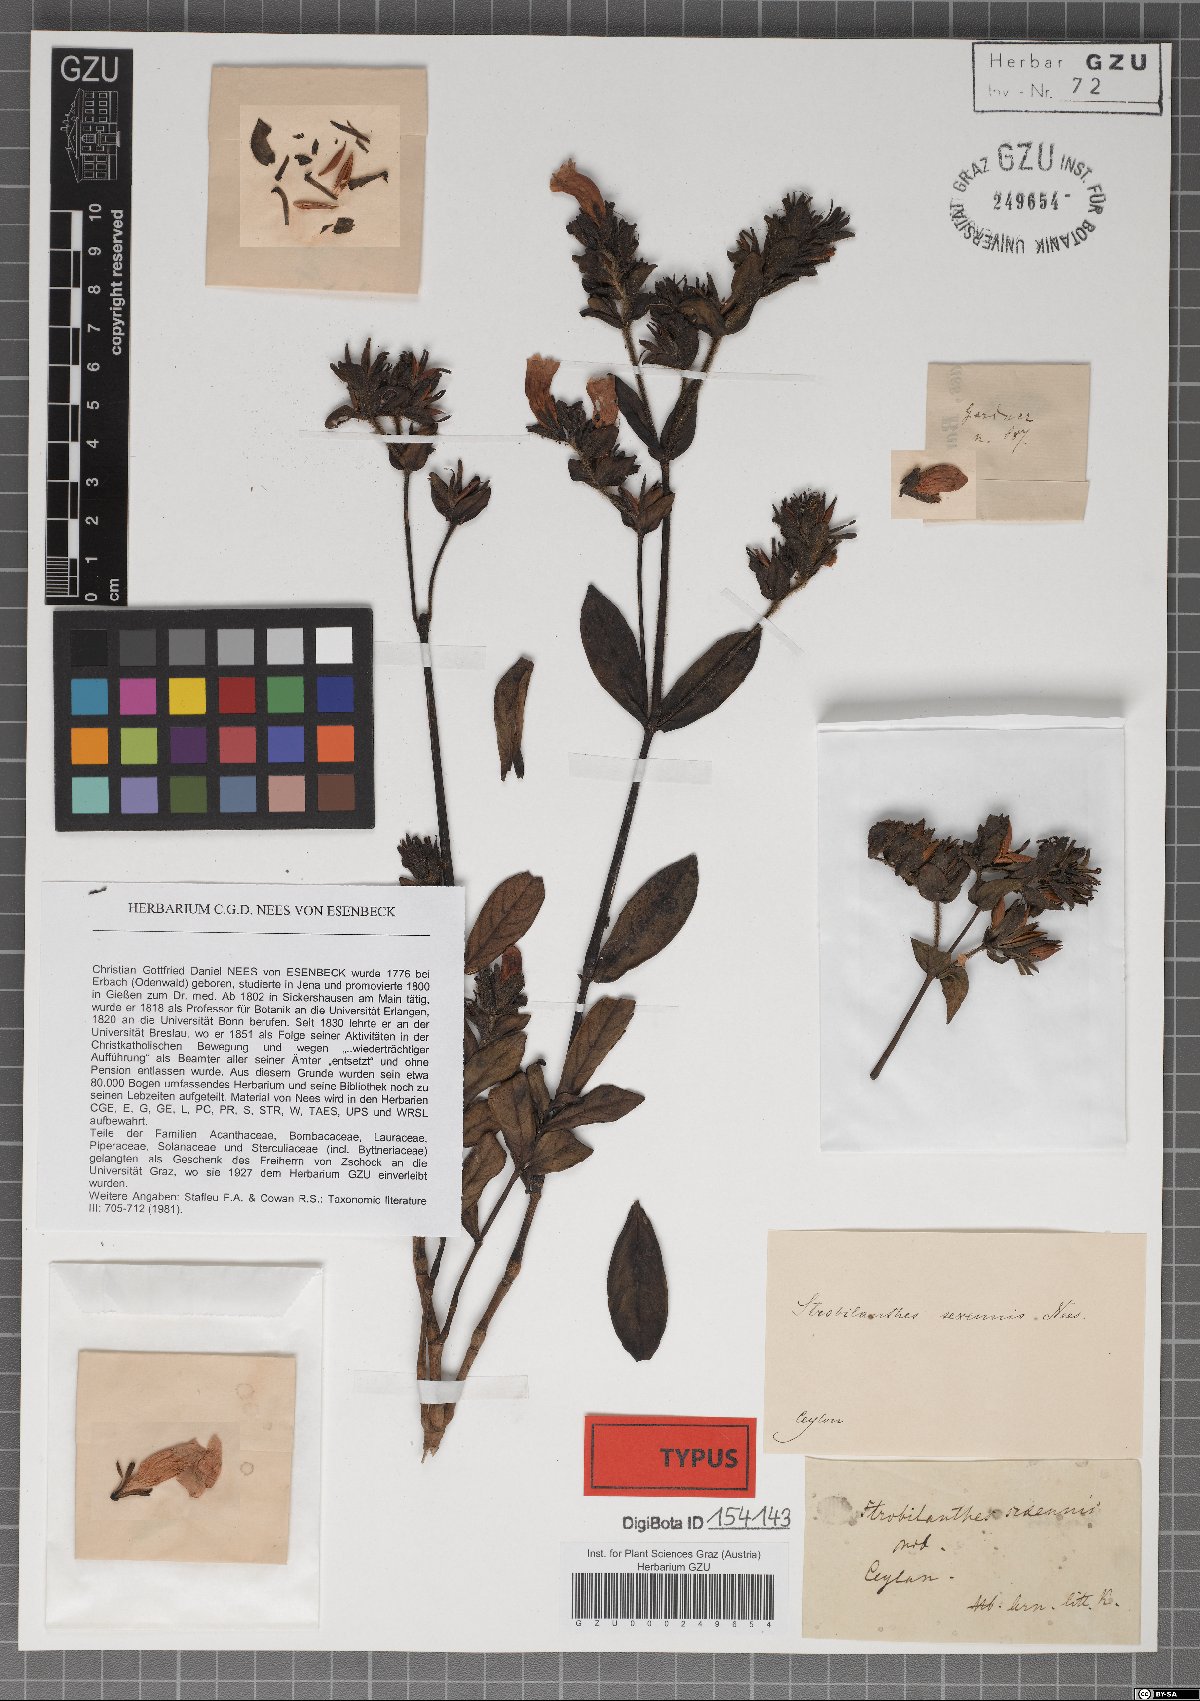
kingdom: Plantae
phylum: Tracheophyta
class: Magnoliopsida
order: Lamiales
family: Acanthaceae
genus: Strobilanthes
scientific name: Strobilanthes sexennis
